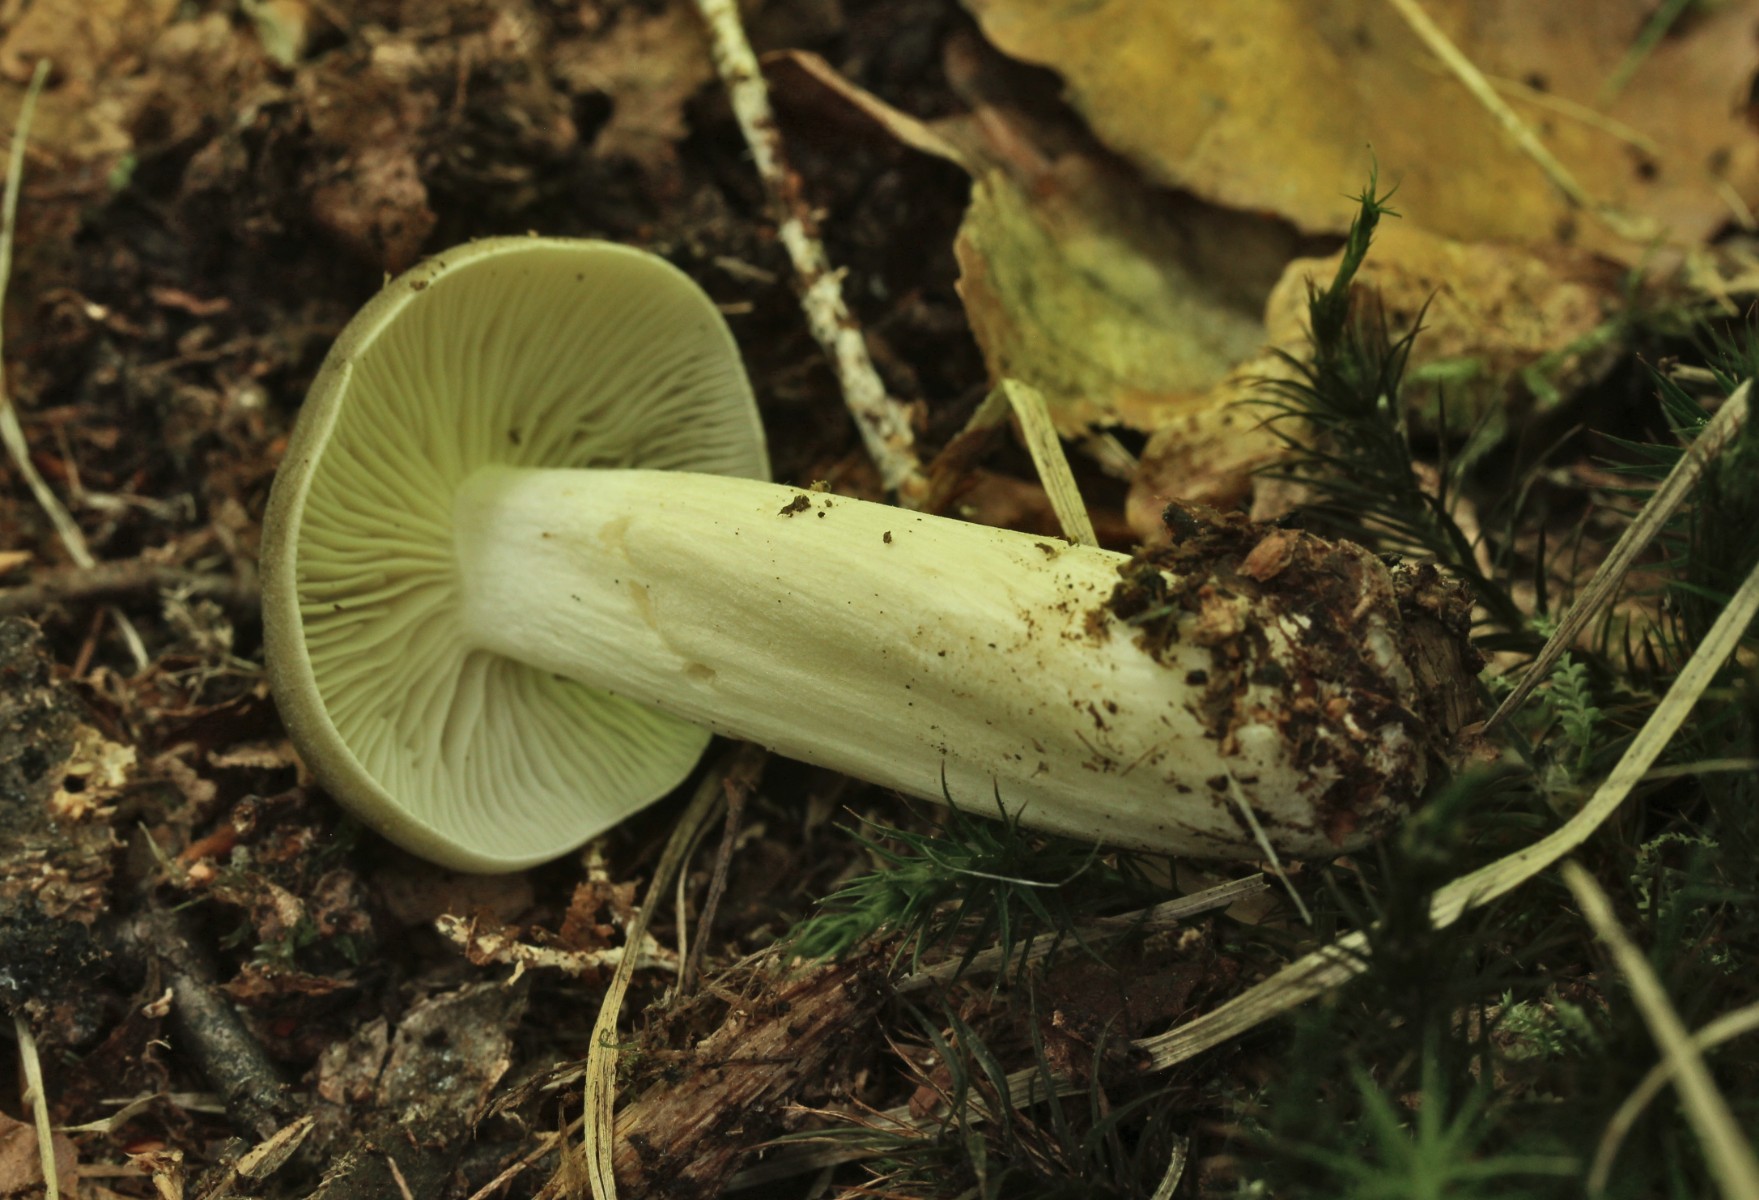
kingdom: Fungi
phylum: Basidiomycota
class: Agaricomycetes
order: Agaricales
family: Tricholomataceae
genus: Megacollybia
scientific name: Megacollybia platyphylla
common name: bredbladet væbnerhat
